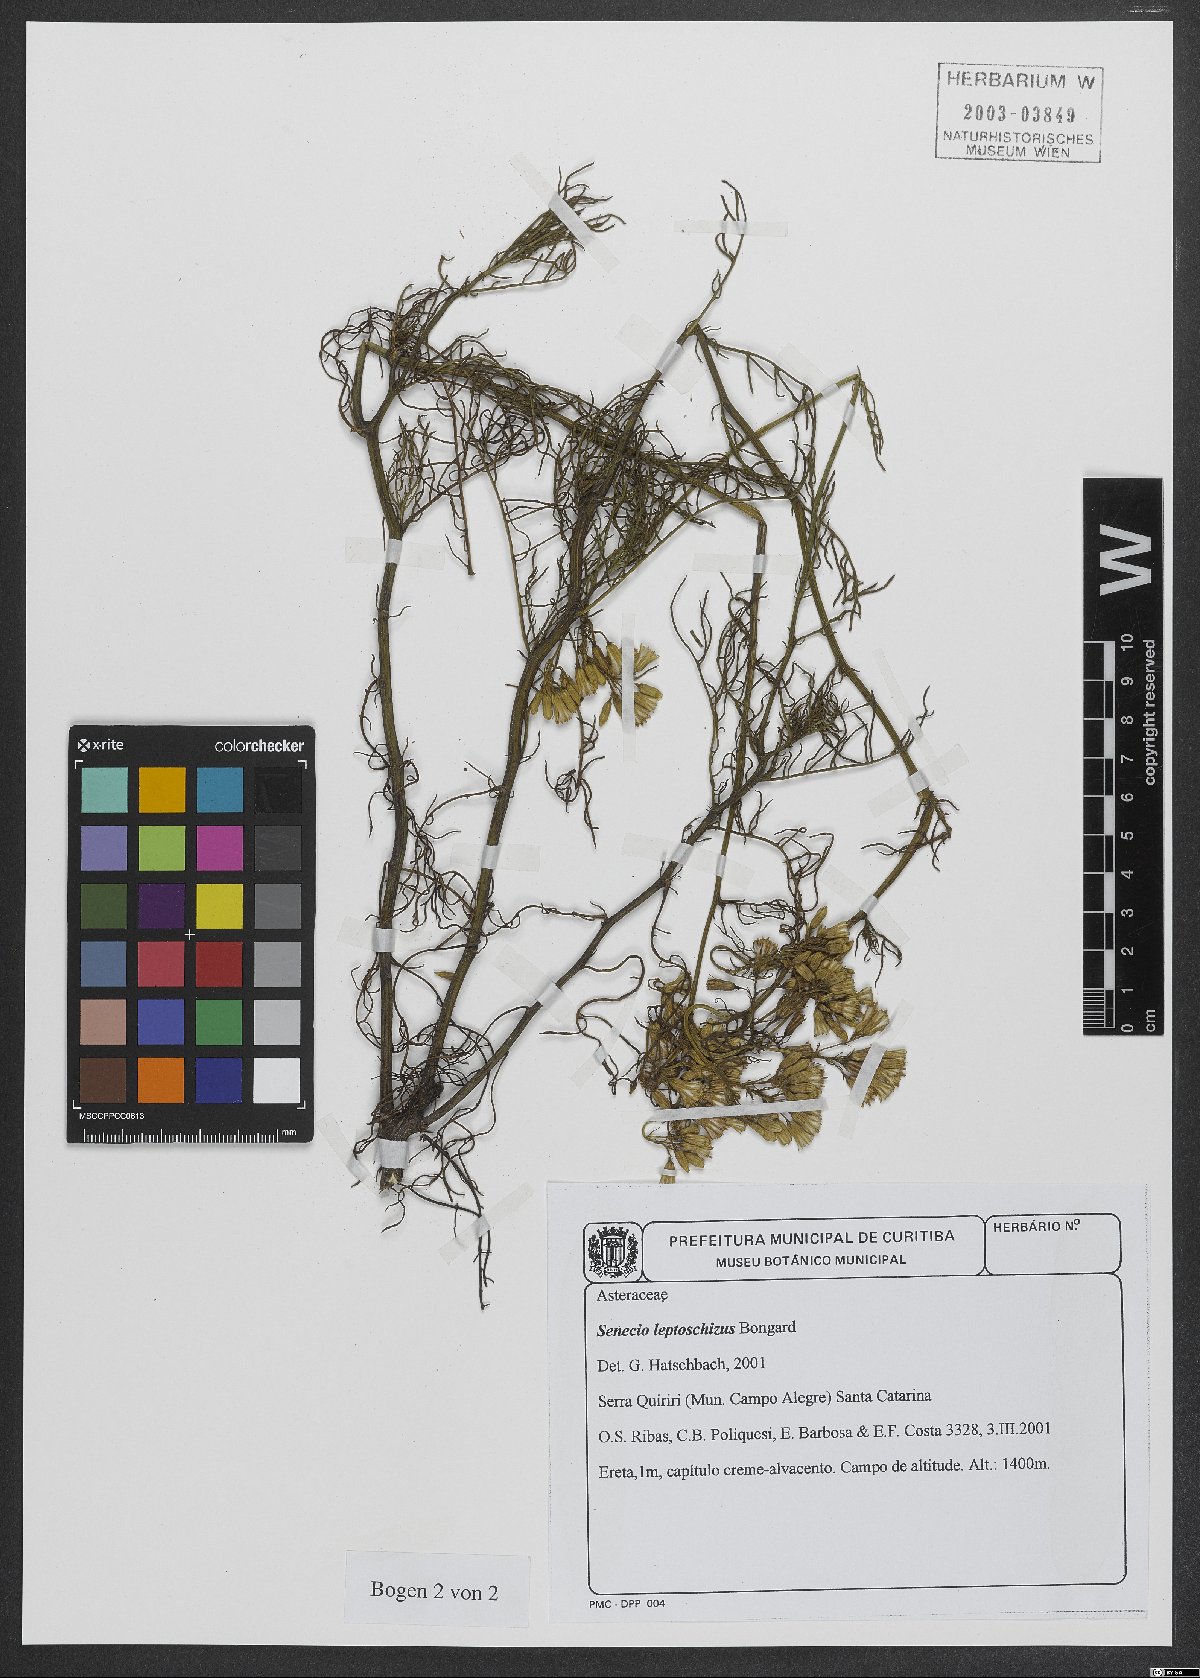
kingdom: Plantae
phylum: Tracheophyta
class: Magnoliopsida
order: Asterales
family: Asteraceae
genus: Senecio
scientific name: Senecio leptoschizus
